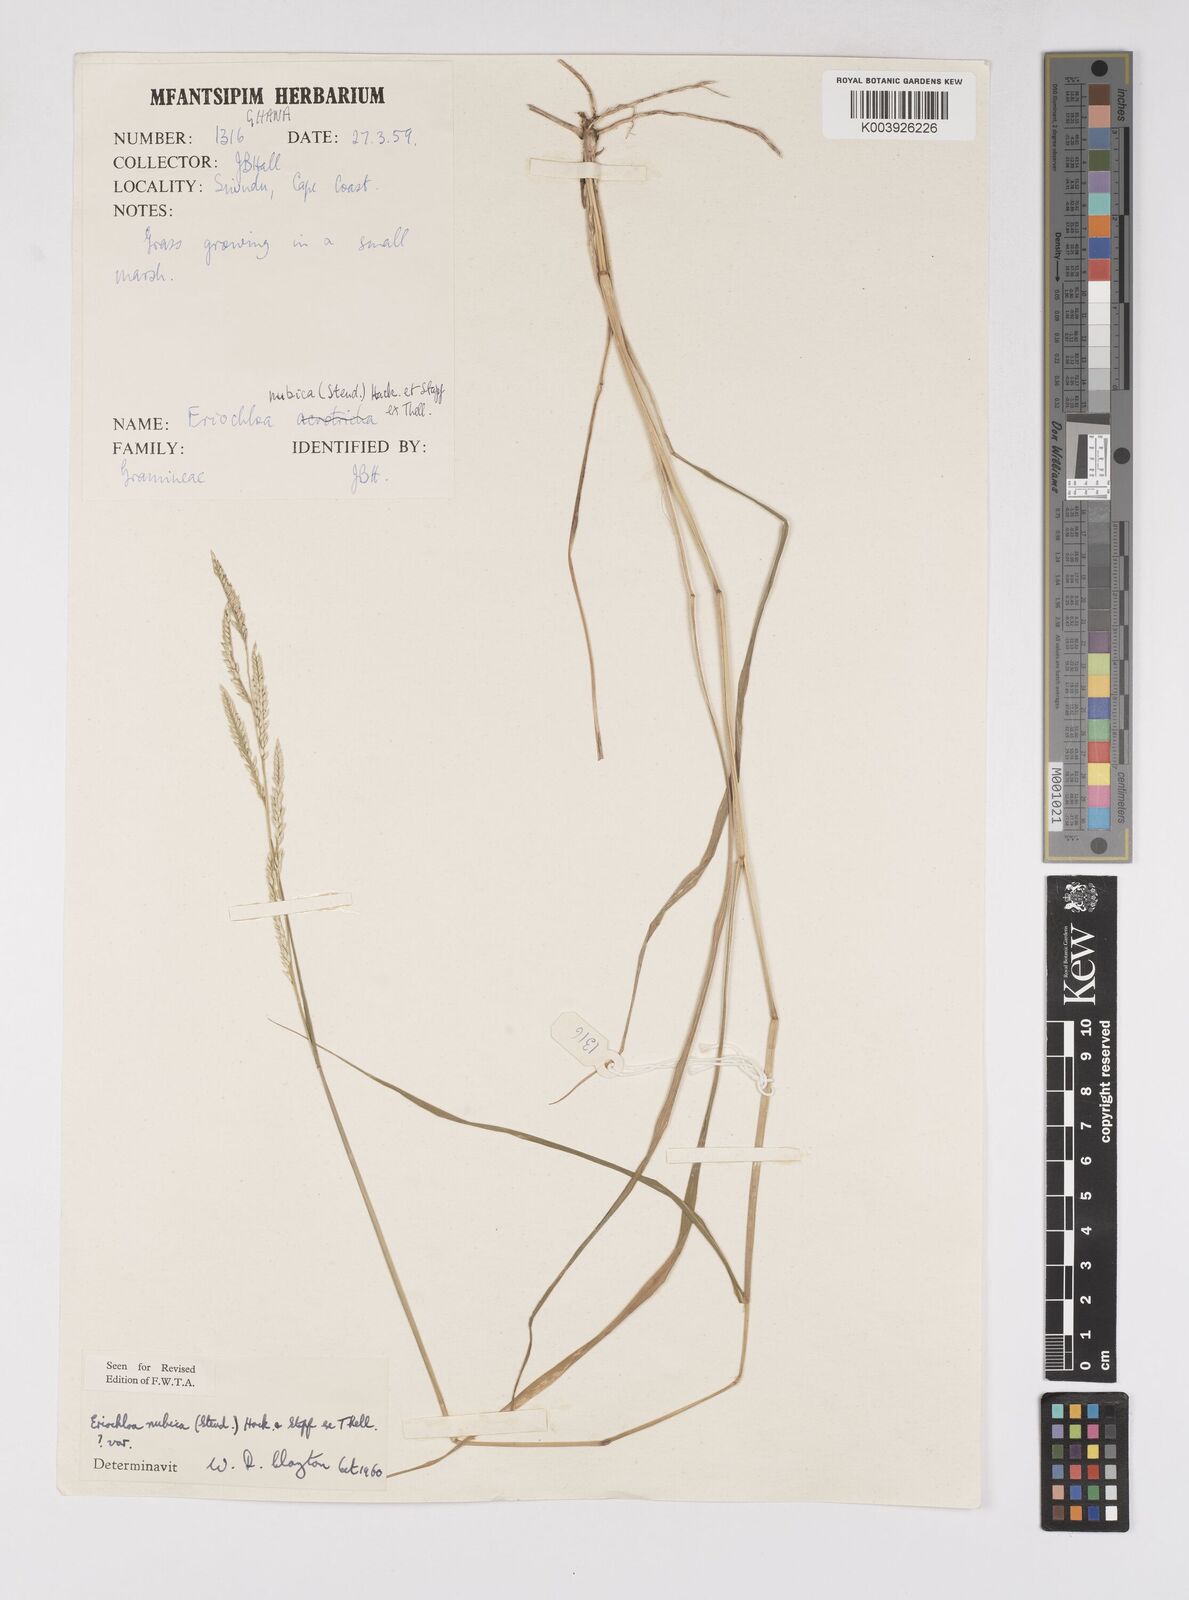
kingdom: Plantae
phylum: Tracheophyta
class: Liliopsida
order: Poales
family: Poaceae
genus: Eriochloa
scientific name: Eriochloa barbatus
